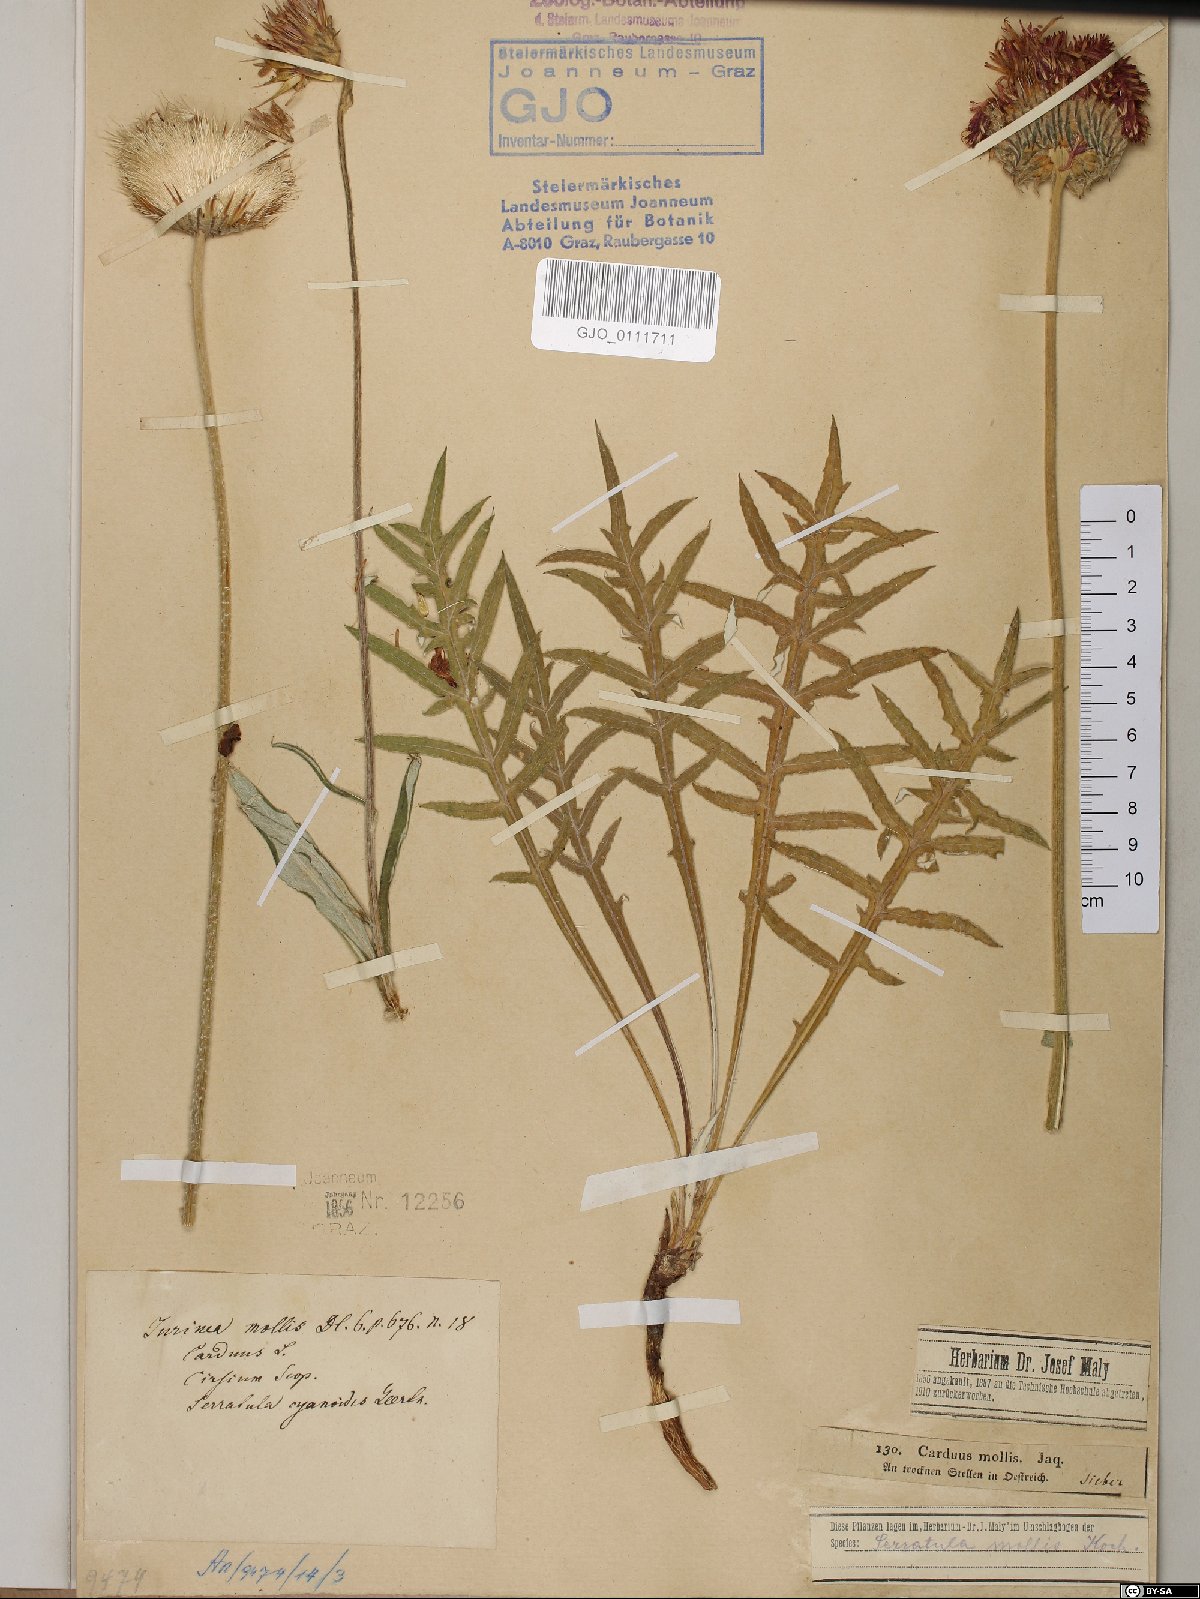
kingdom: Plantae
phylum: Tracheophyta
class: Magnoliopsida
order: Asterales
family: Asteraceae
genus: Jurinea
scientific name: Jurinea mollis
